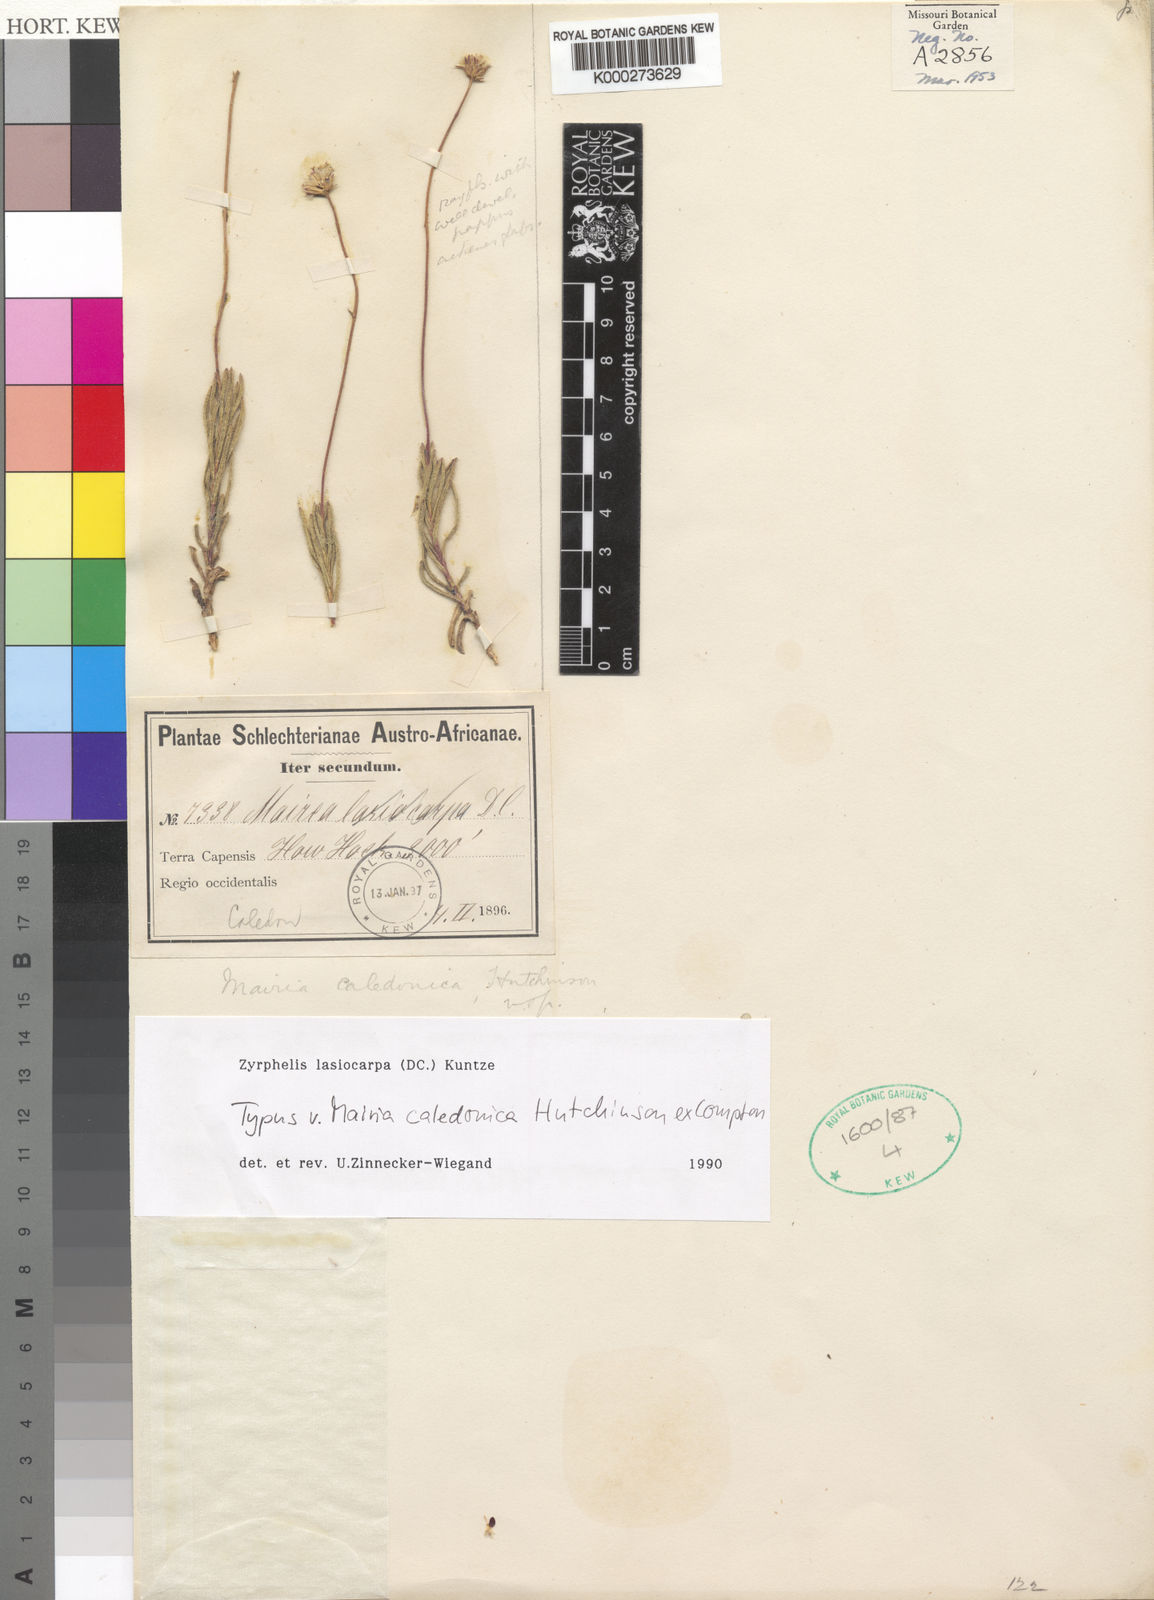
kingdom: Plantae
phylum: Tracheophyta
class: Magnoliopsida
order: Asterales
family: Asteraceae
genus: Zyrphelis
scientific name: Zyrphelis lasiocarpa
